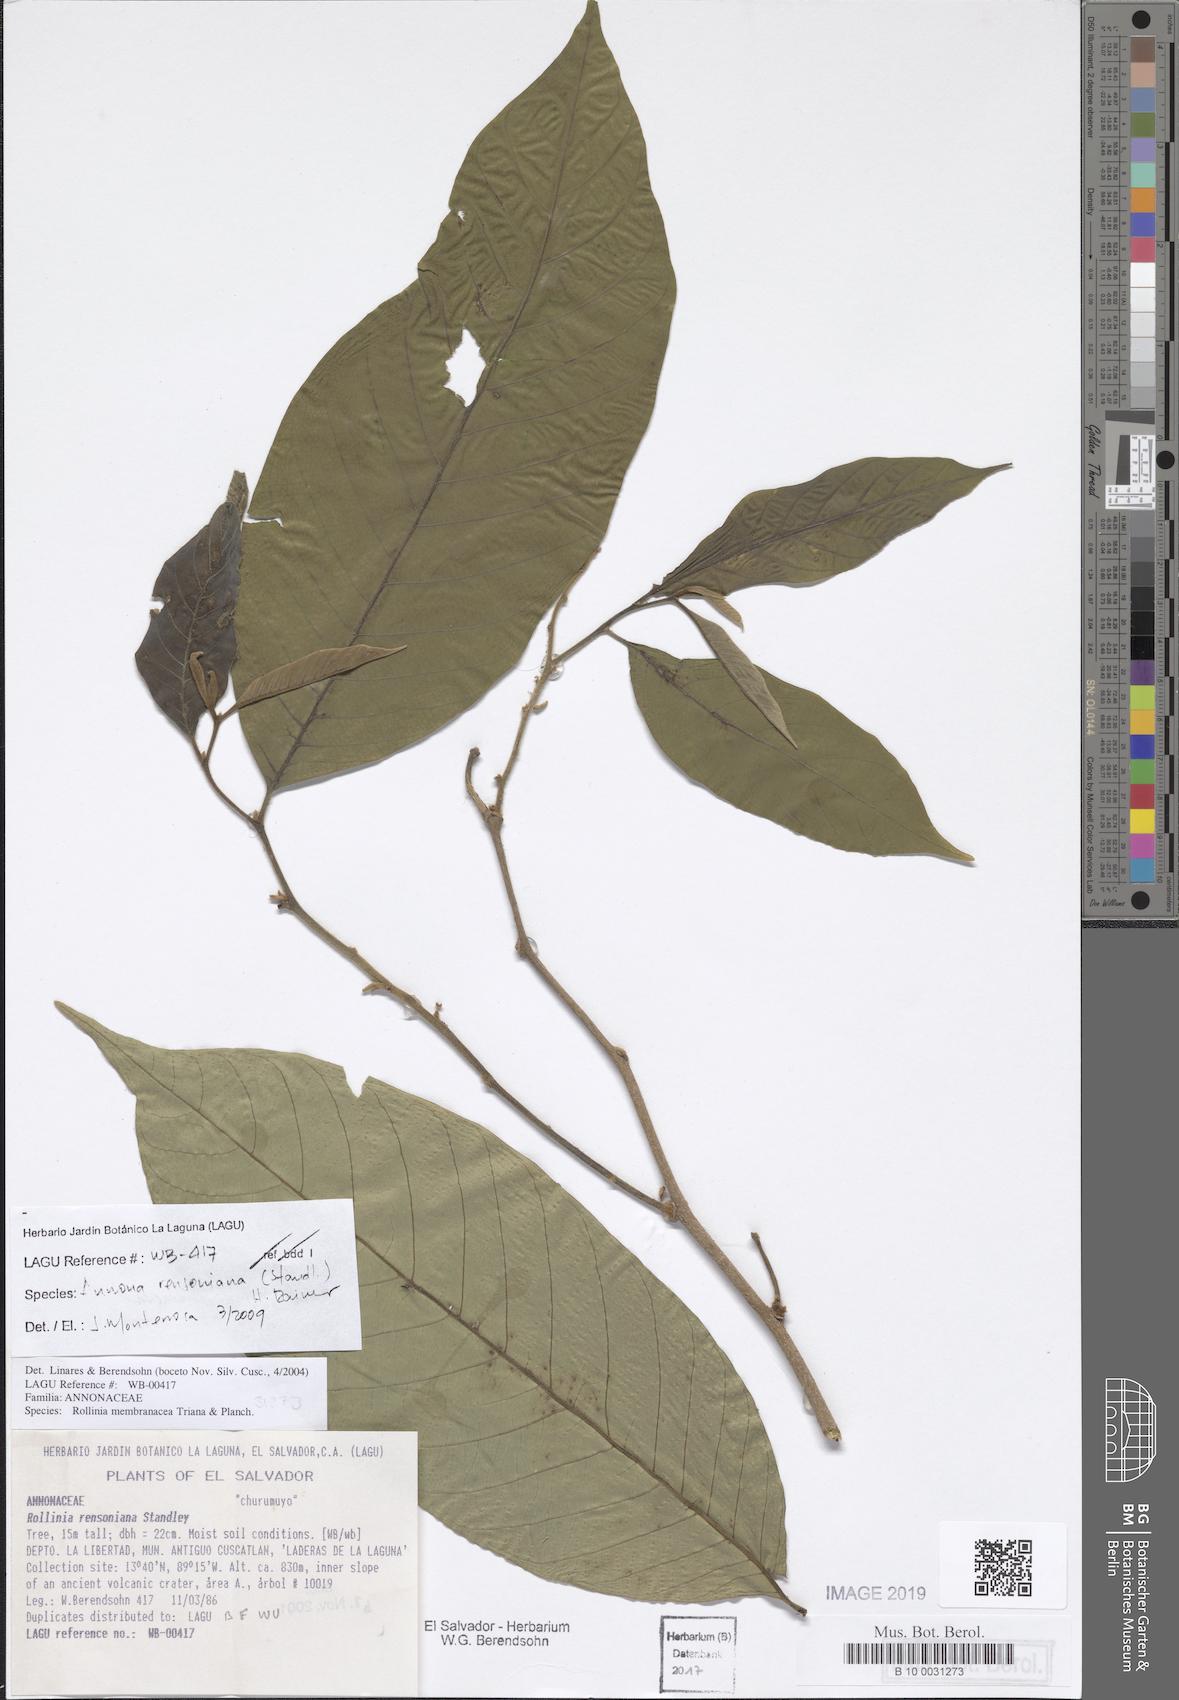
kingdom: Plantae
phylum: Tracheophyta
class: Magnoliopsida
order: Magnoliales
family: Annonaceae
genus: Annona
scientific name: Annona rensoniana
